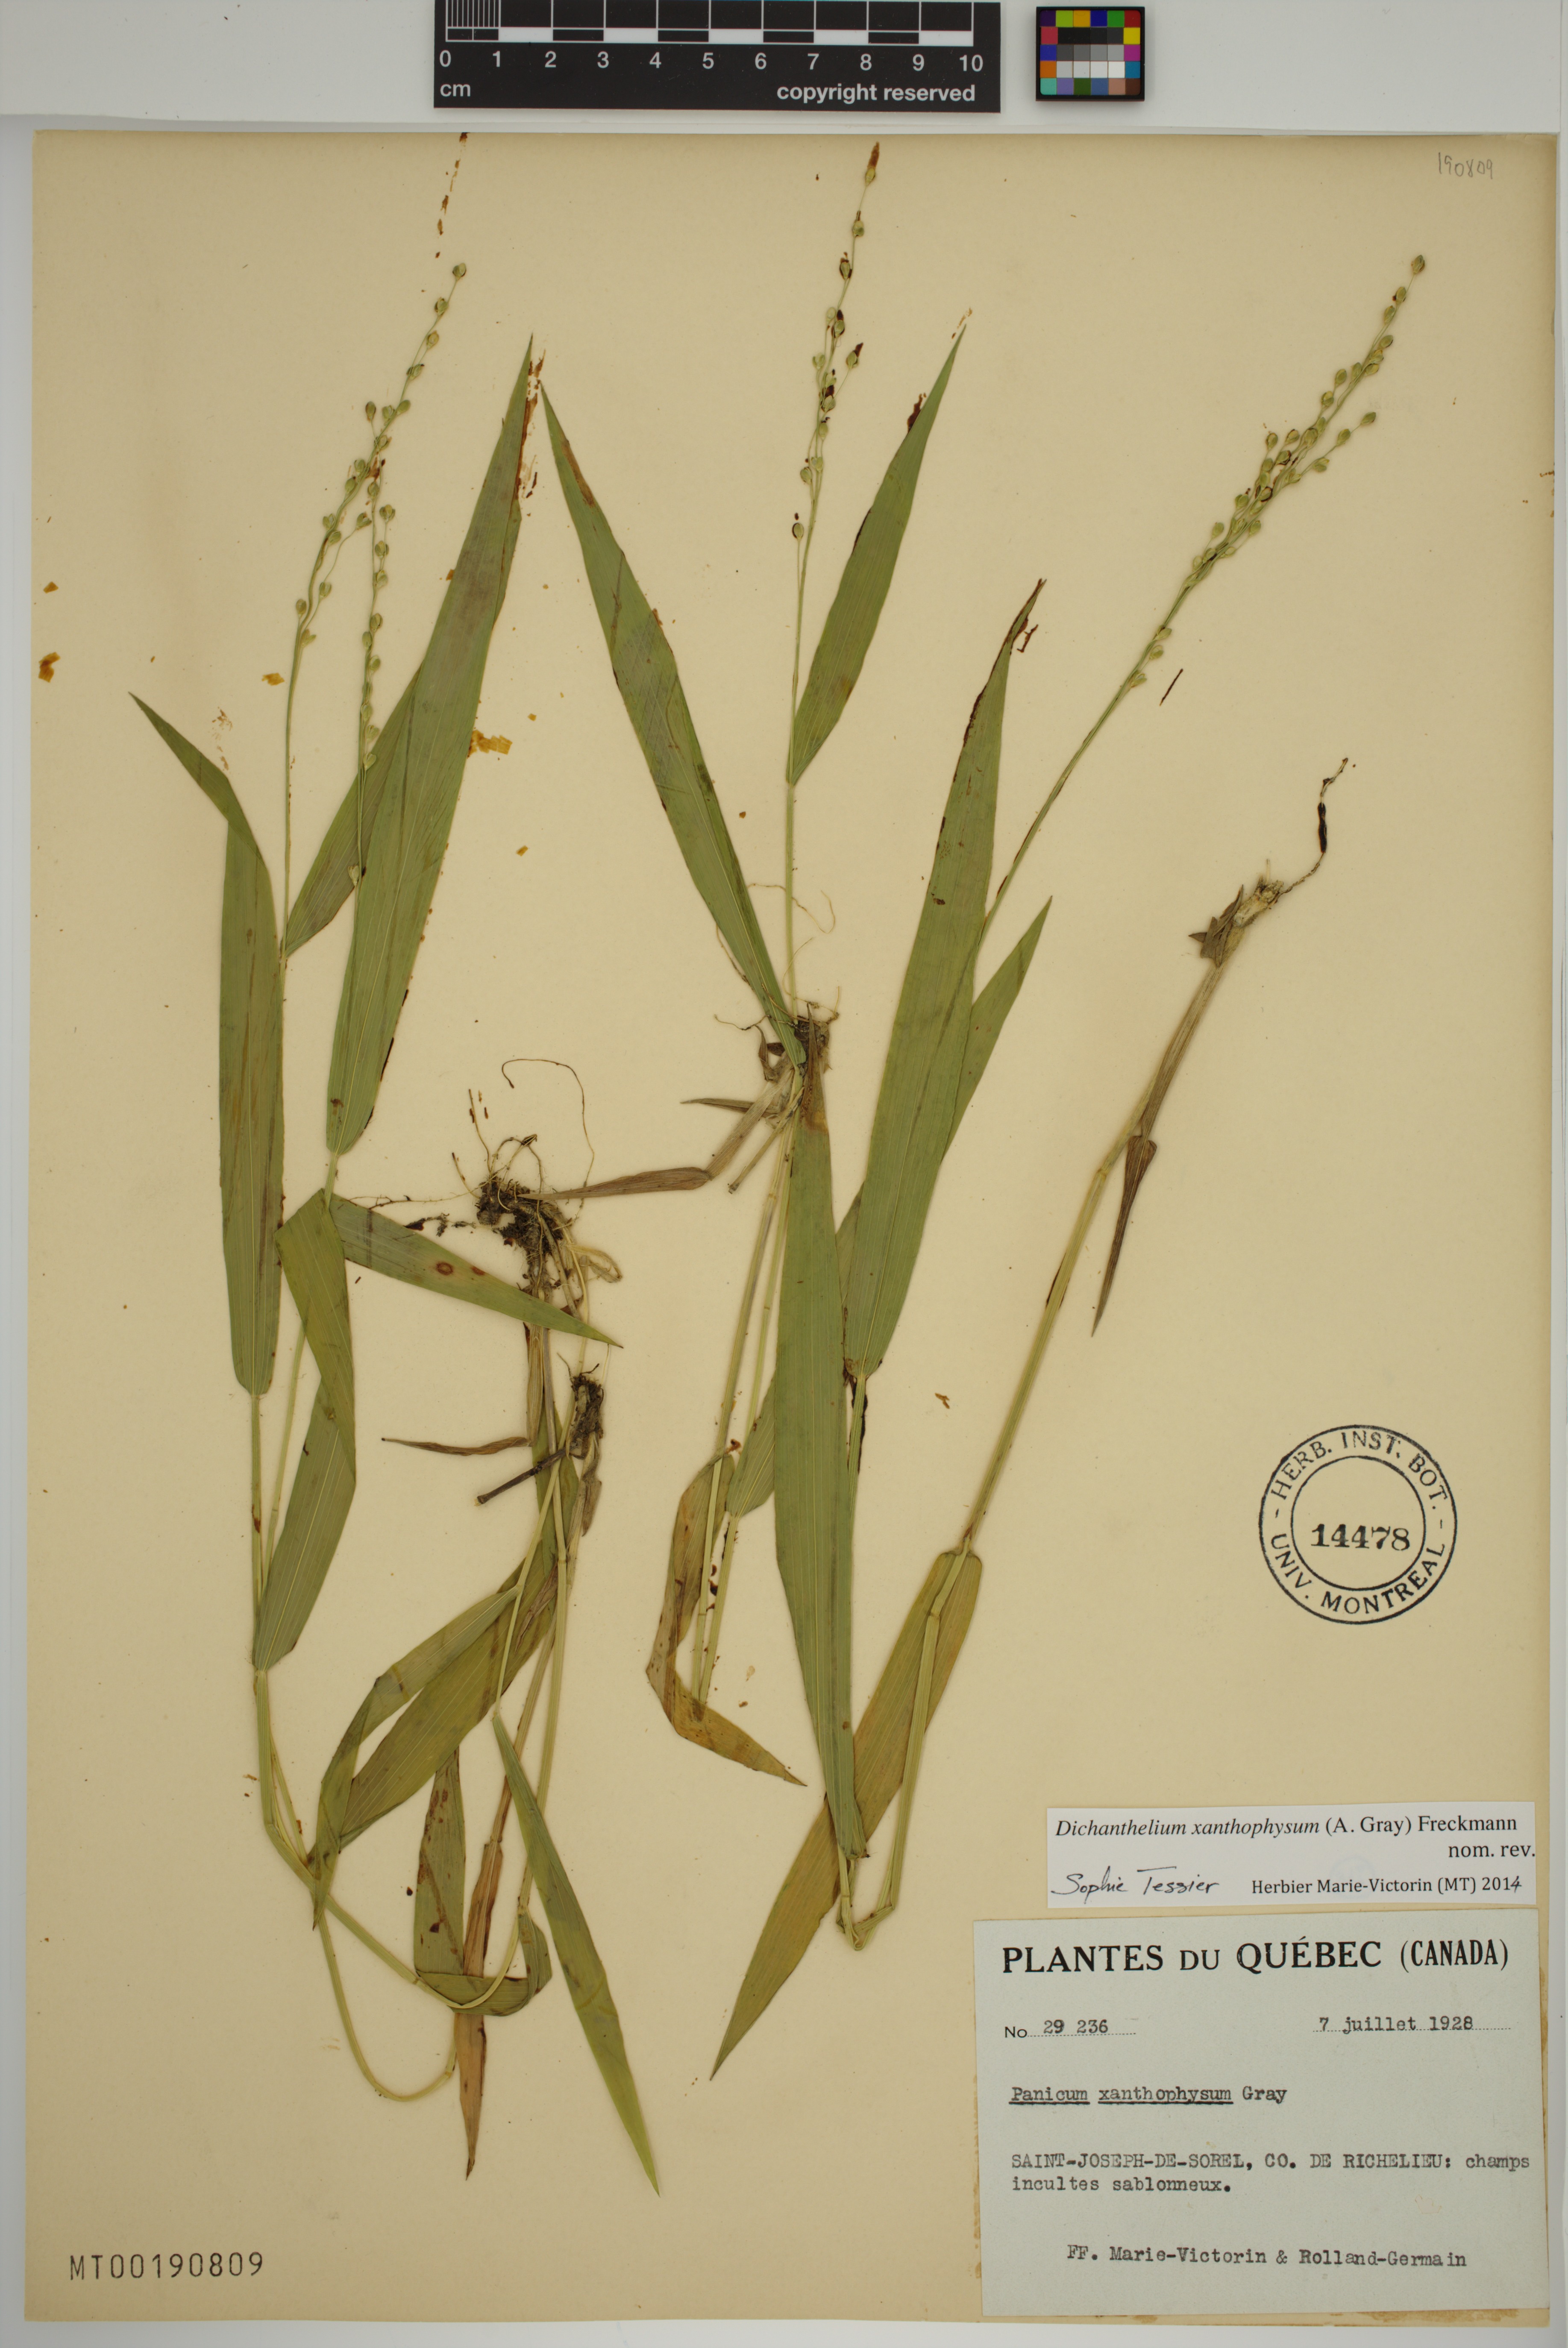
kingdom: Plantae
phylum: Tracheophyta
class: Liliopsida
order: Poales
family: Poaceae
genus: Dichanthelium
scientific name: Dichanthelium xanthophysum
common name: Pale panicgrass
